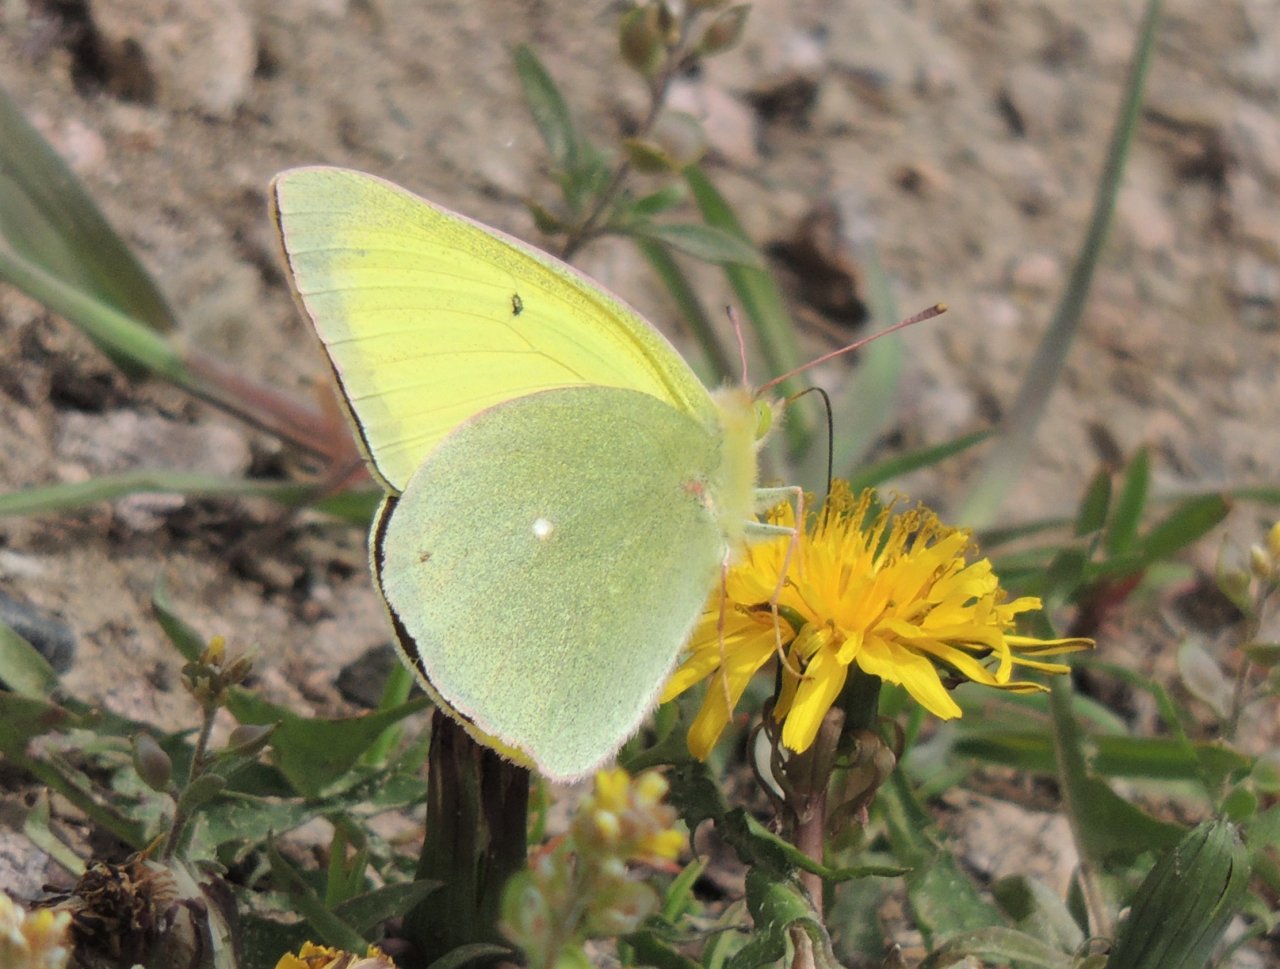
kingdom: Animalia
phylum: Arthropoda
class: Insecta
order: Lepidoptera
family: Pieridae
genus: Colias
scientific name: Colias alexandra
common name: Queen Alexandra's Sulphur
